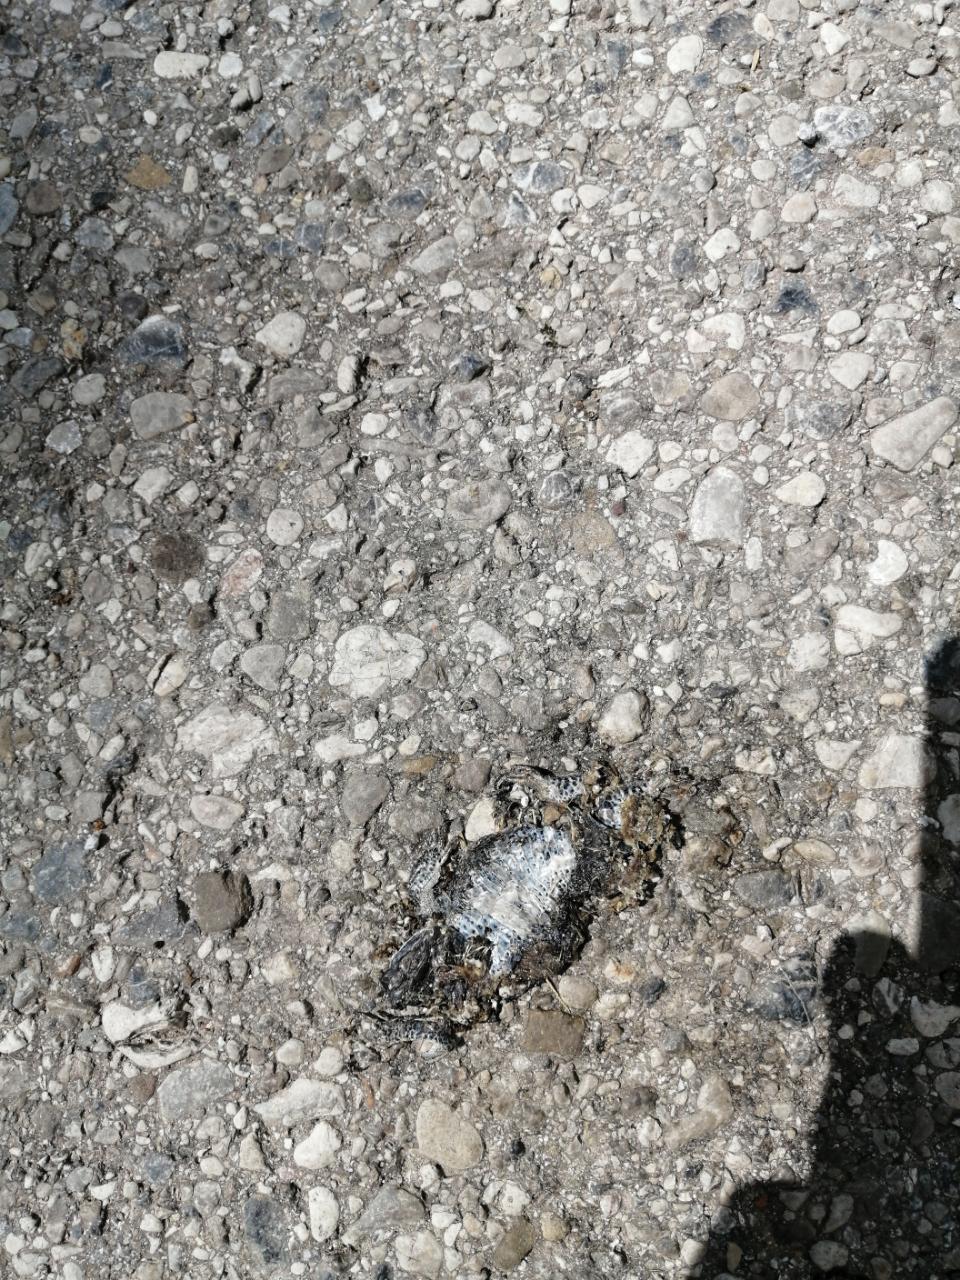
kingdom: Animalia
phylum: Chordata
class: Squamata
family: Lacertidae
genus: Lacerta
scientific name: Lacerta
